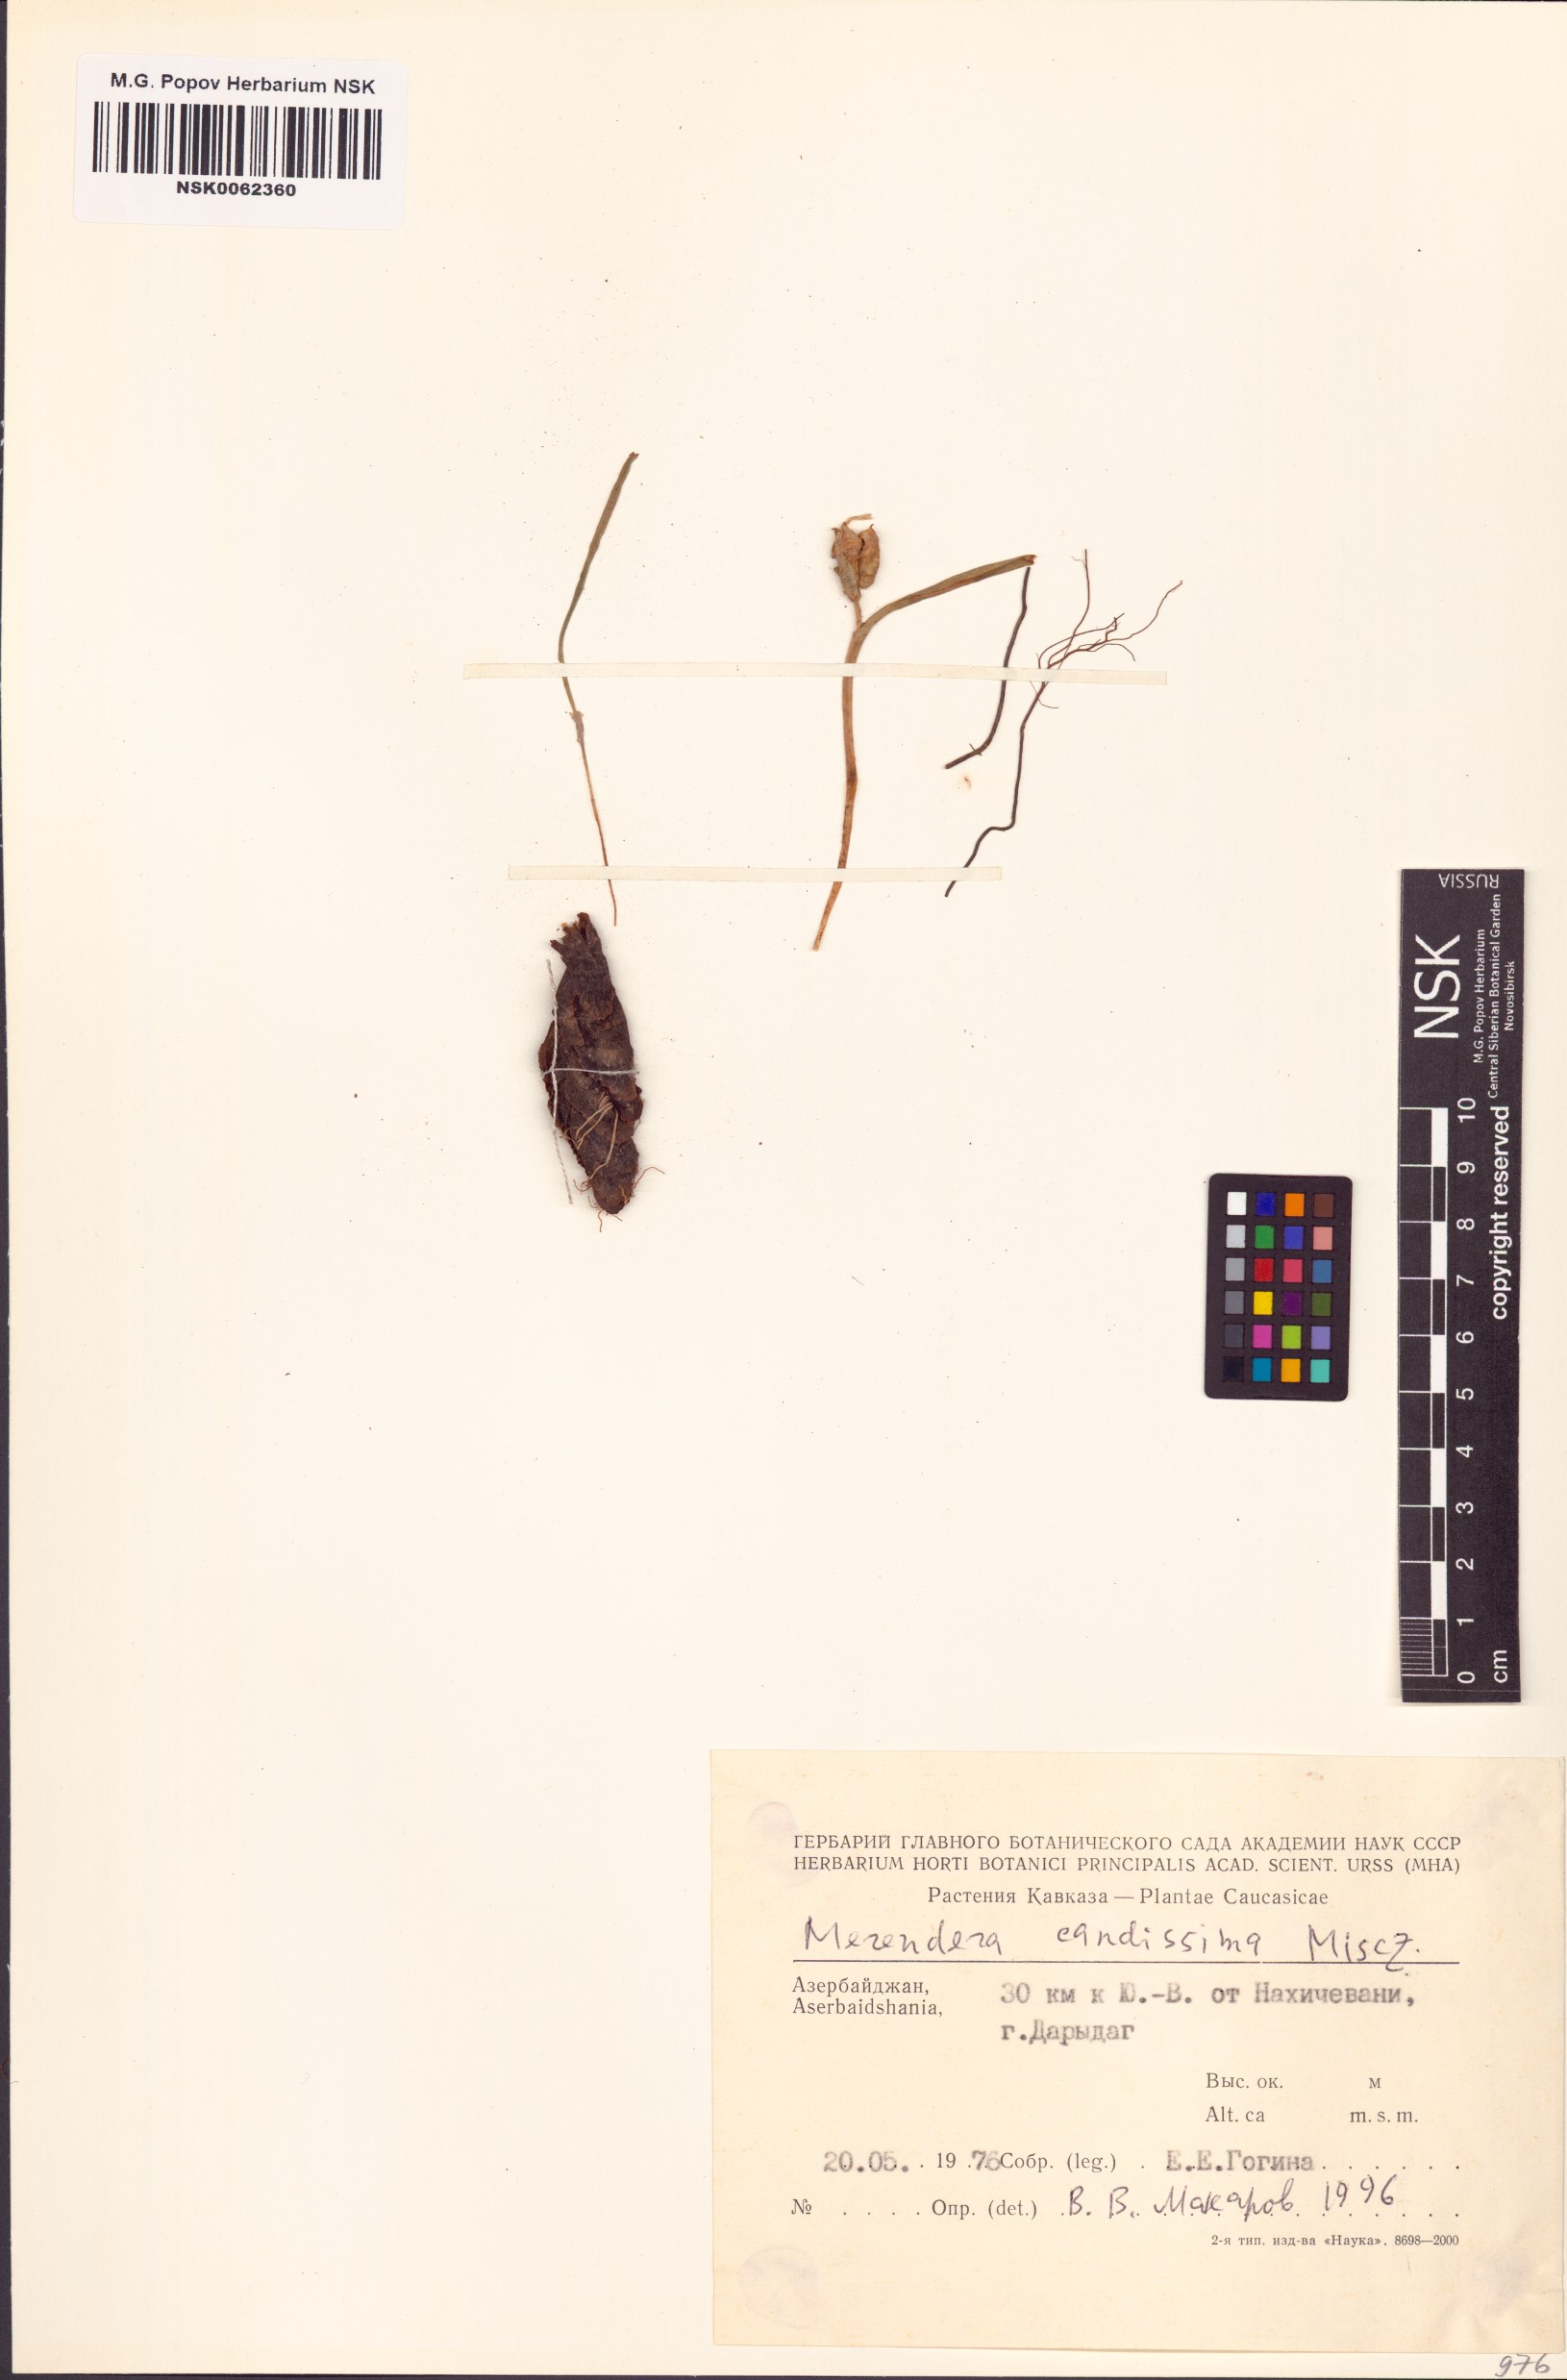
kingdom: Plantae
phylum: Tracheophyta
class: Liliopsida
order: Liliales
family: Colchicaceae
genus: Colchicum
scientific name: Colchicum trigynum
